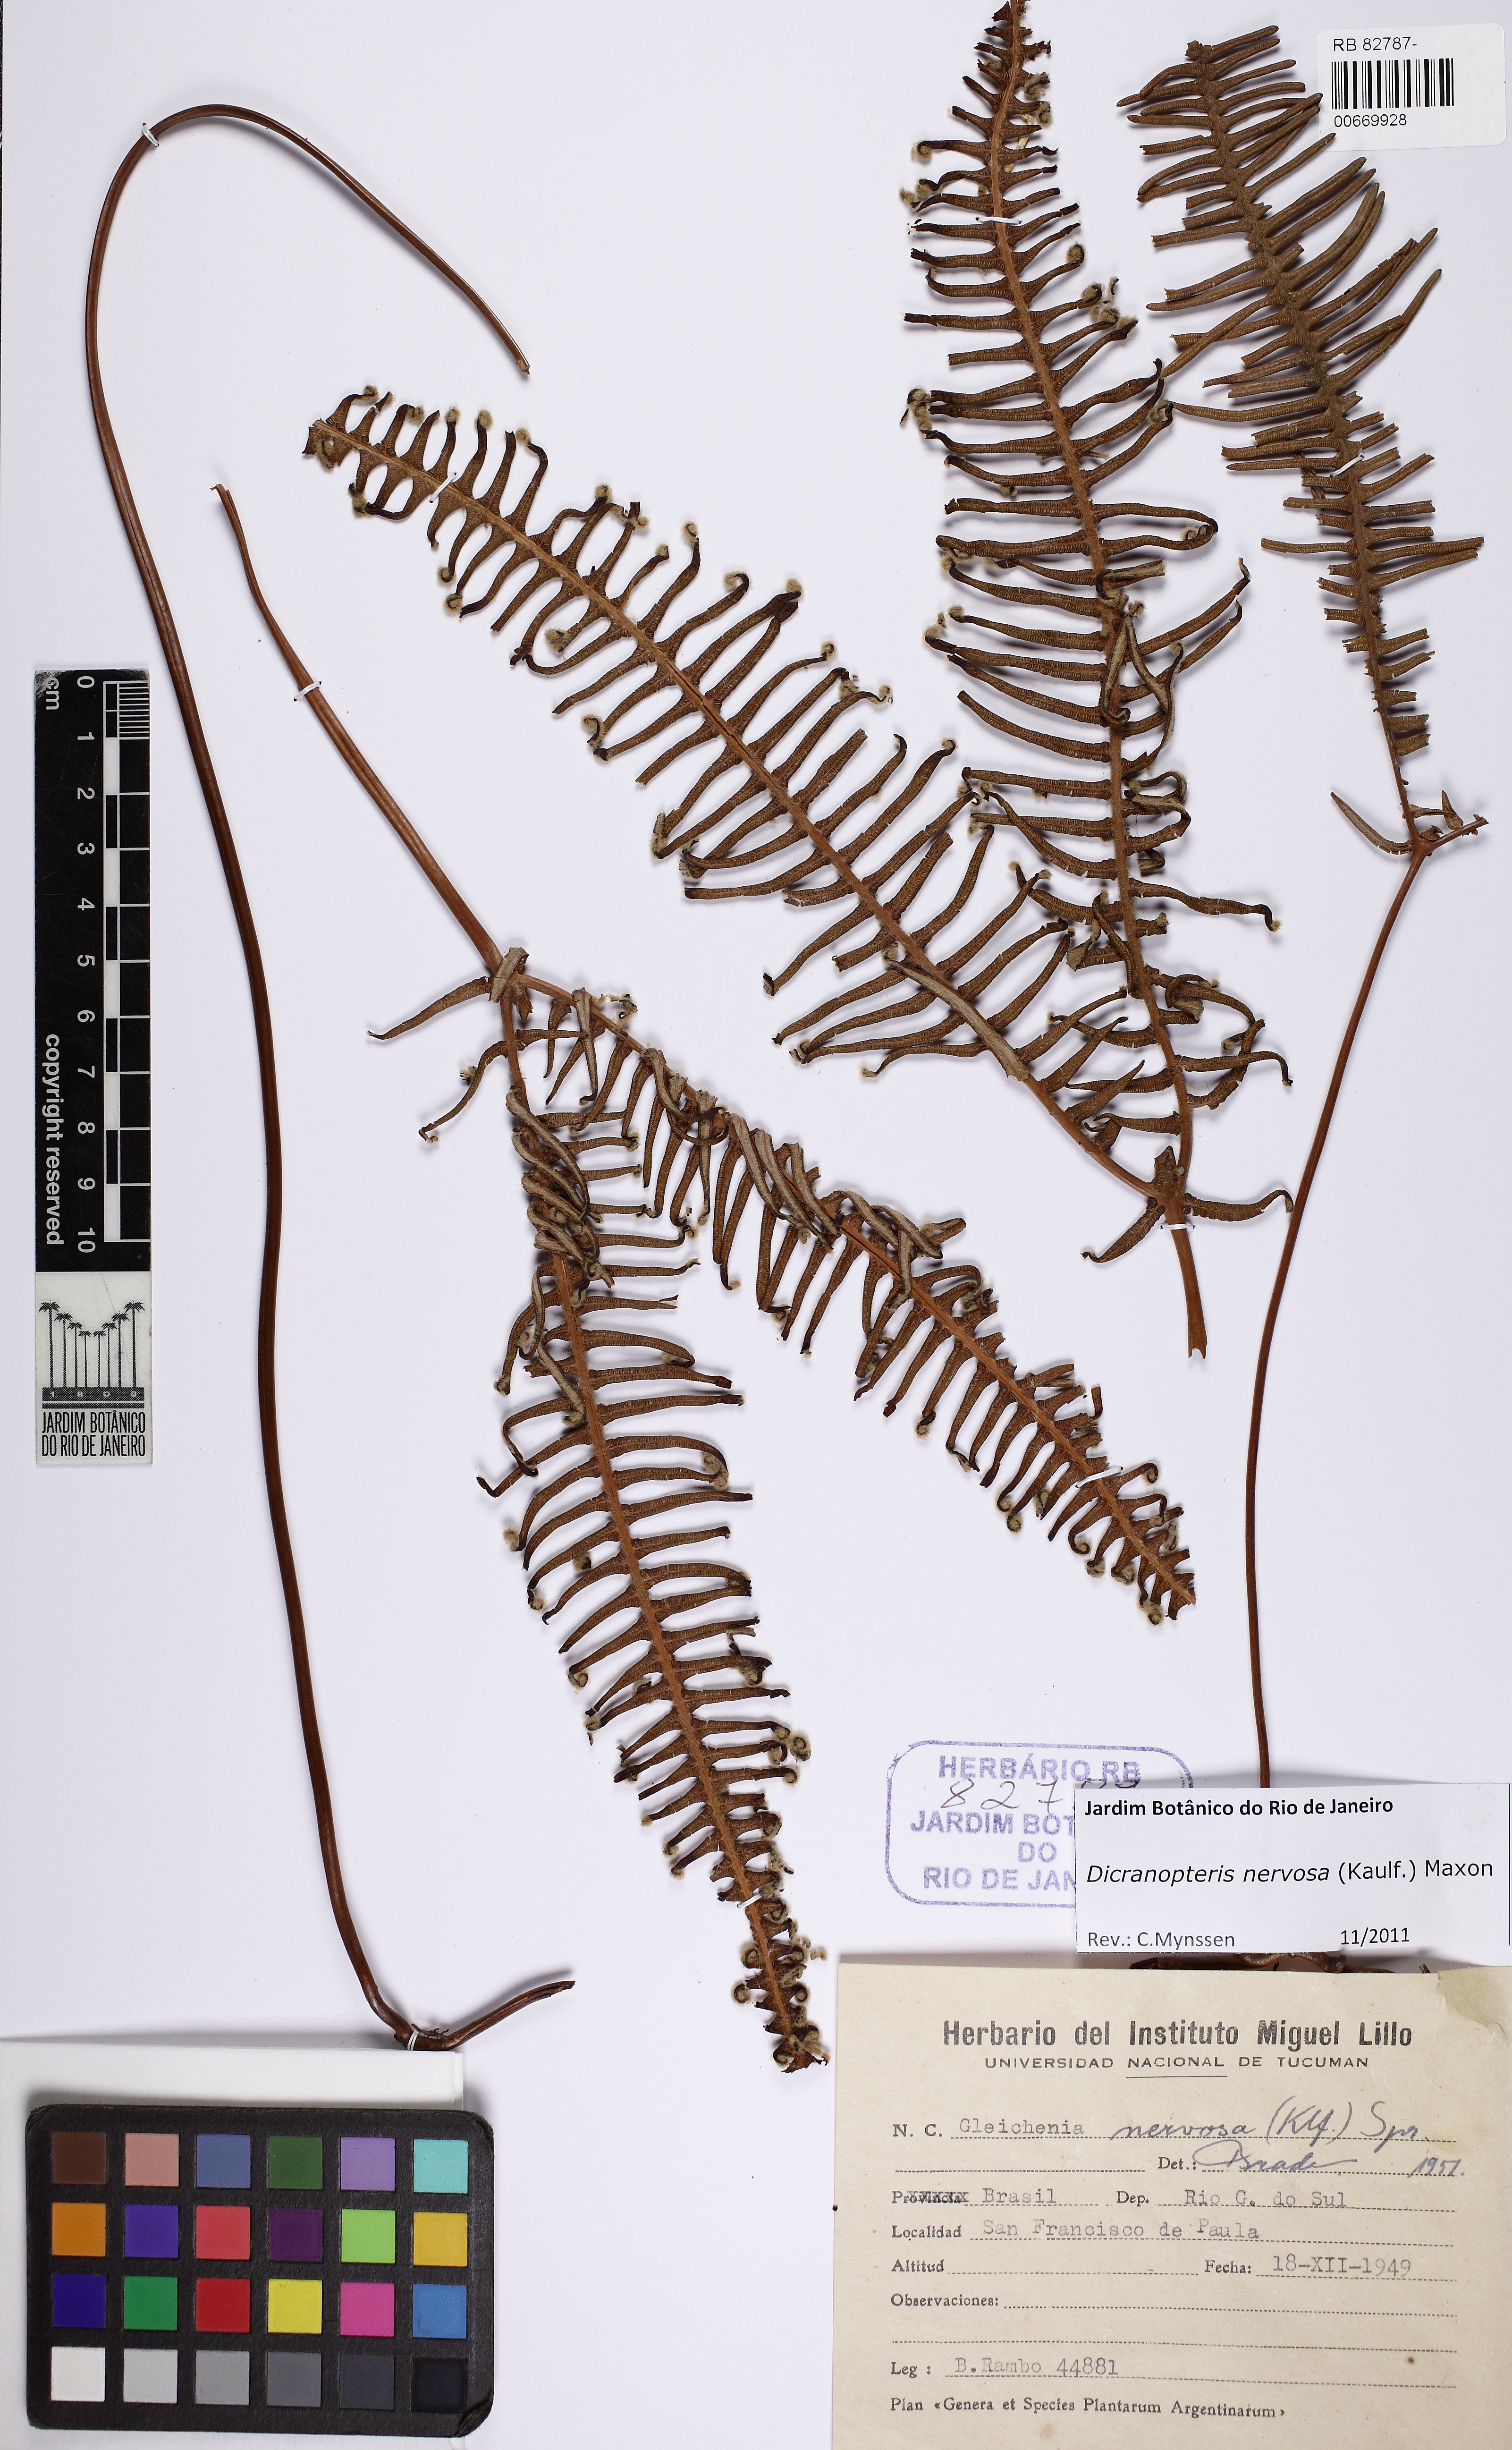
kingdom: Plantae
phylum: Tracheophyta
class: Polypodiopsida
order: Gleicheniales
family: Gleicheniaceae
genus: Dicranopteris
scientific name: Dicranopteris nervosa
